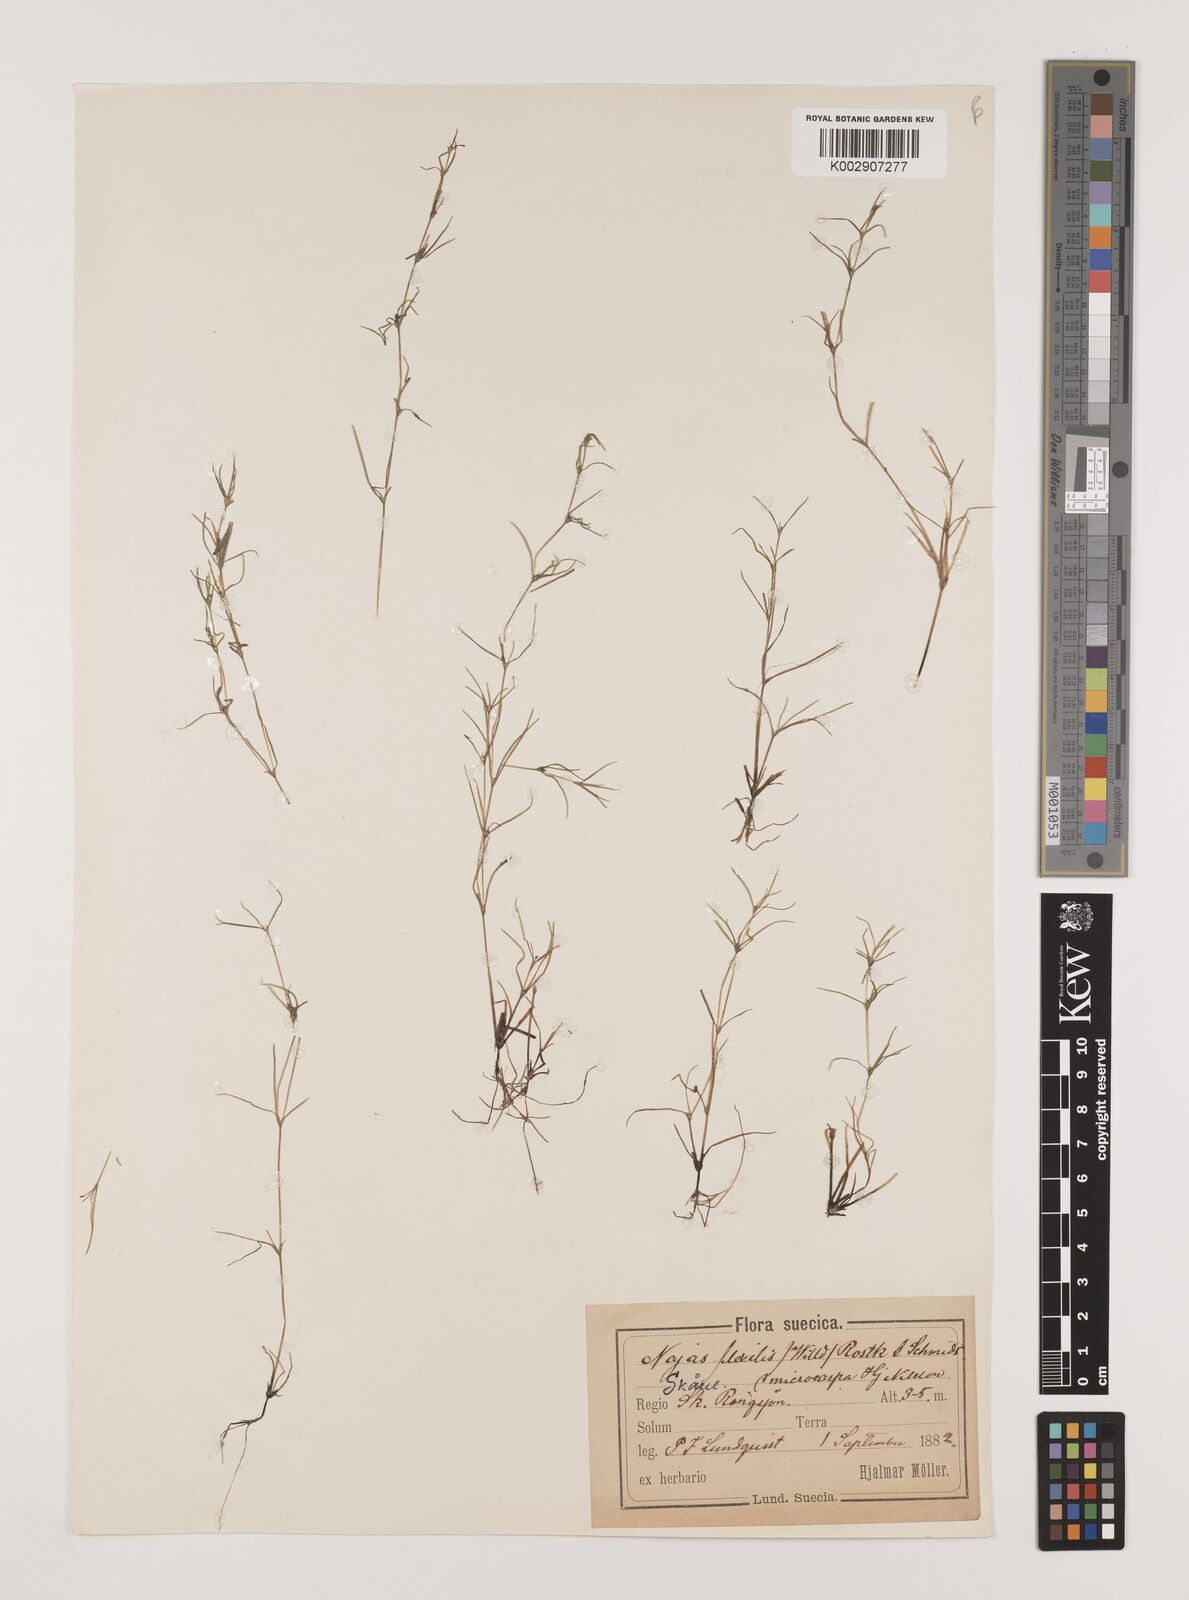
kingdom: Plantae
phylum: Tracheophyta
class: Liliopsida
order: Alismatales
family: Hydrocharitaceae
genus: Najas
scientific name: Najas flexilis
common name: Slender naiad
